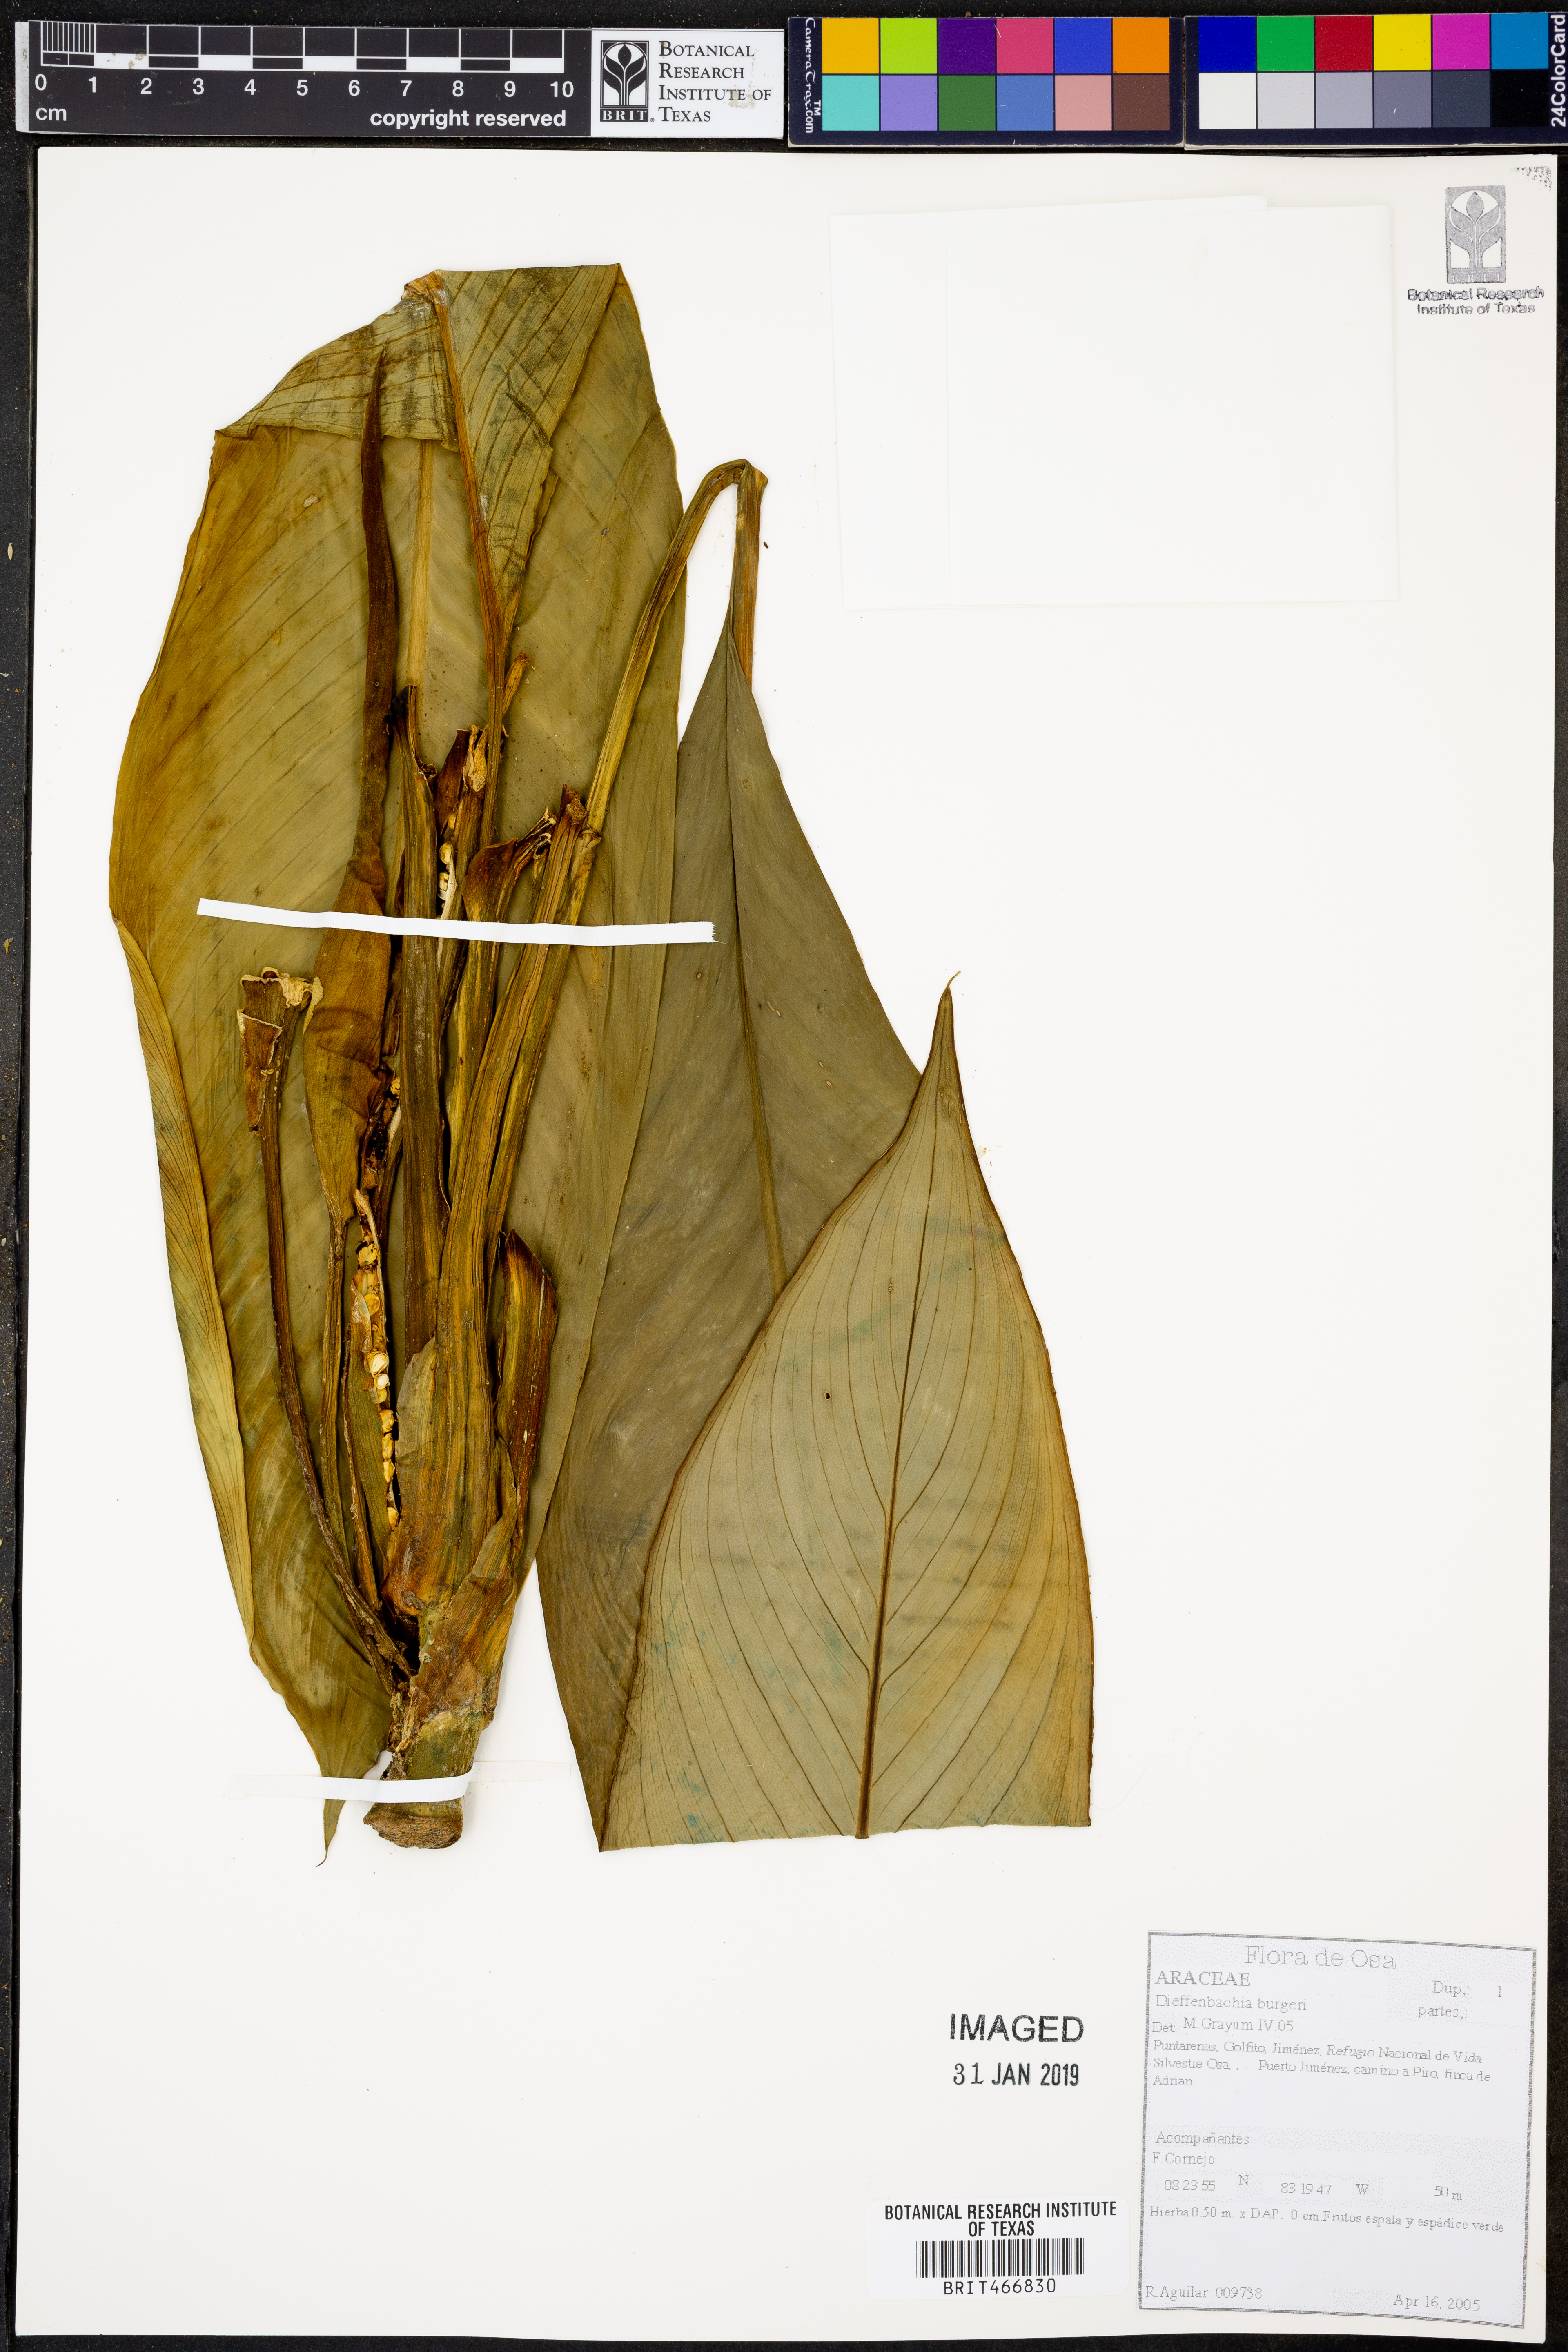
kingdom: Plantae
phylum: Tracheophyta
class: Liliopsida
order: Alismatales
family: Araceae
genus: Dieffenbachia
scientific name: Dieffenbachia burgeri
